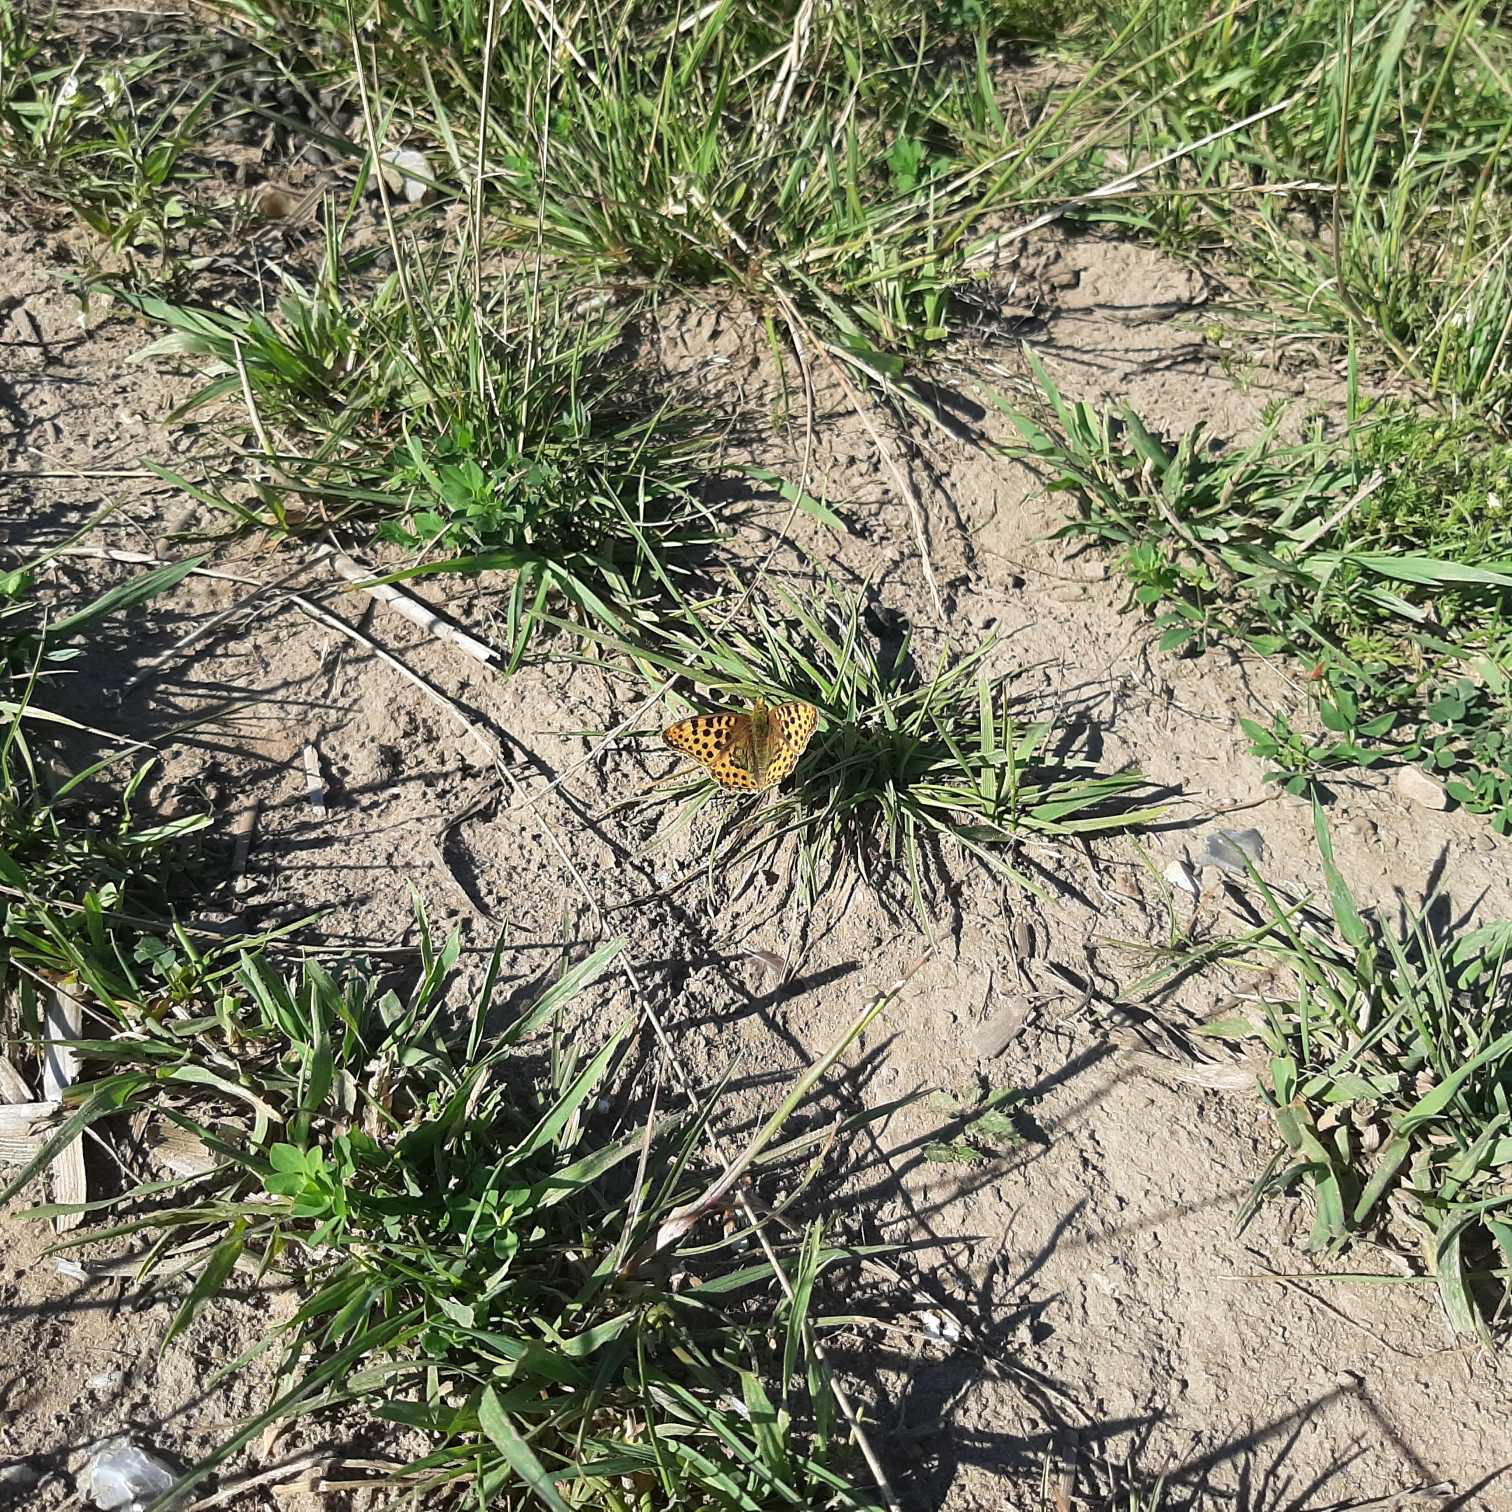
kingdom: Animalia
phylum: Arthropoda
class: Insecta
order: Lepidoptera
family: Nymphalidae
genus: Issoria
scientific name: Issoria lathonia
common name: Storplettet perlemorsommerfugl
